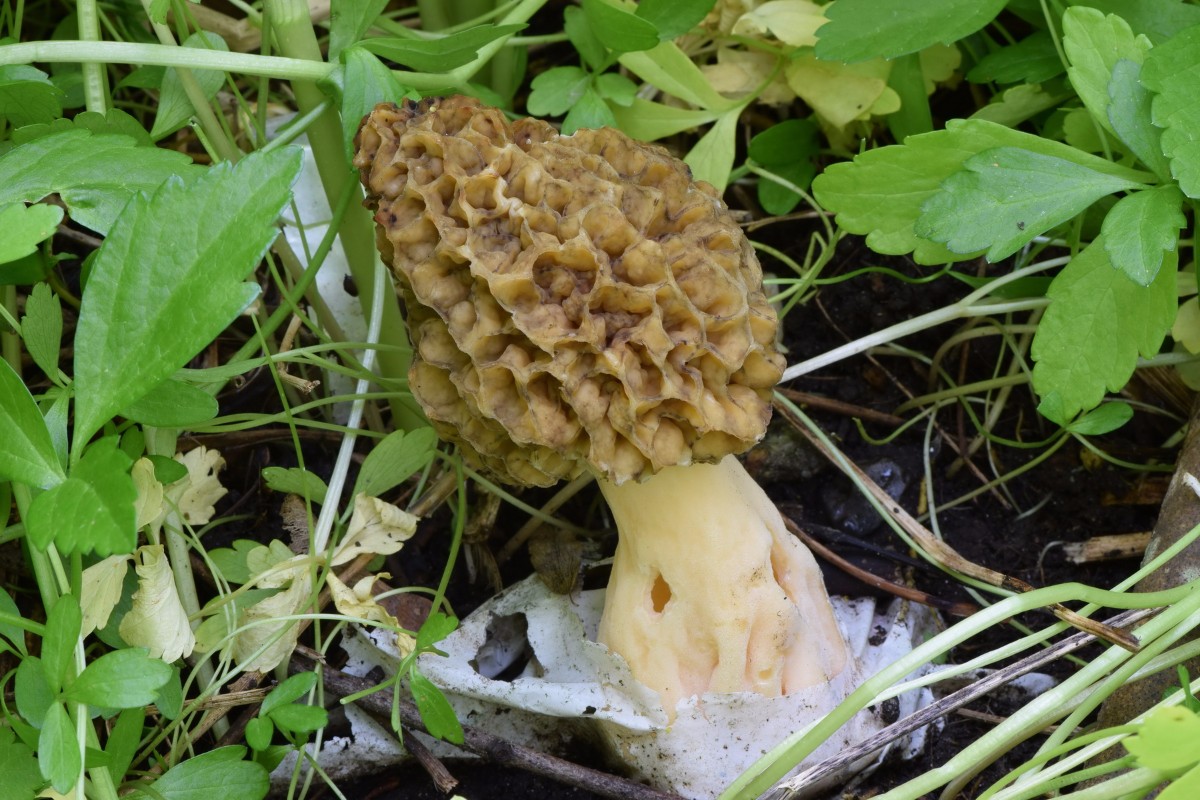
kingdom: Fungi
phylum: Ascomycota
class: Pezizomycetes
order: Pezizales
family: Morchellaceae
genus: Morchella
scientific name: Morchella esculenta
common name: spiselig morkel
